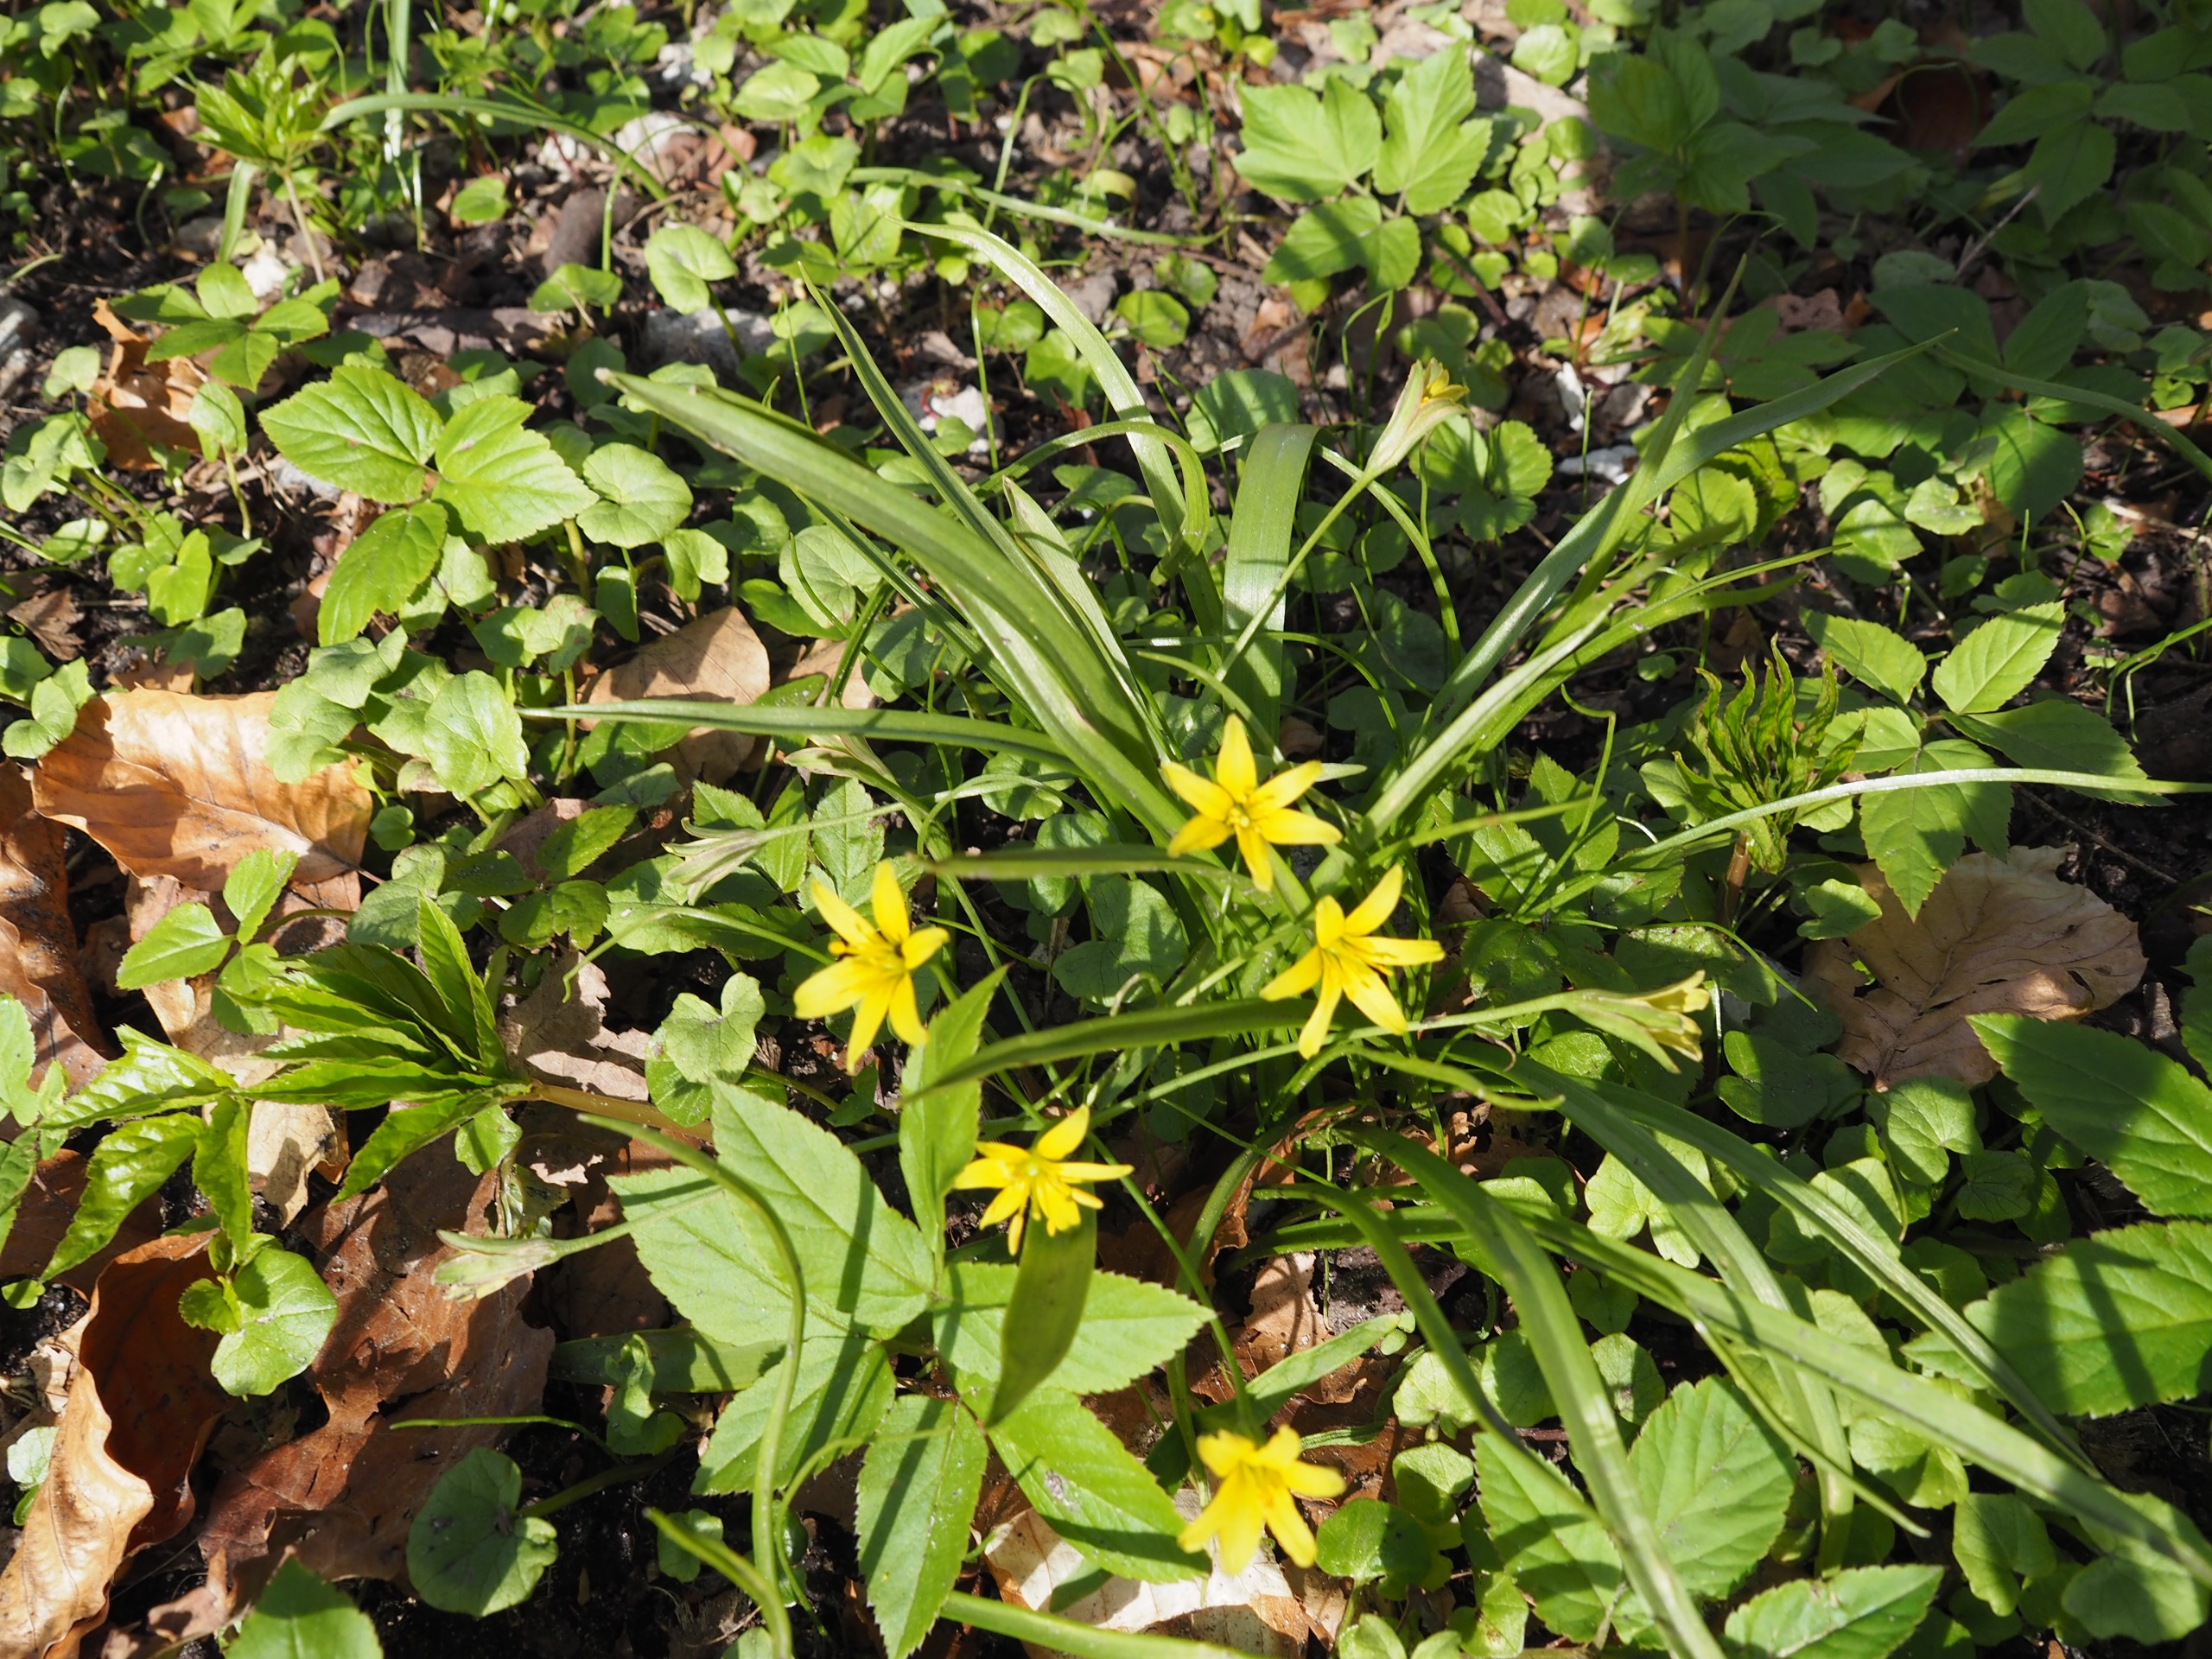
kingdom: Plantae
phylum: Tracheophyta
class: Liliopsida
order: Liliales
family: Liliaceae
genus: Gagea
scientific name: Gagea lutea
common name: Almindelig guldstjerne
